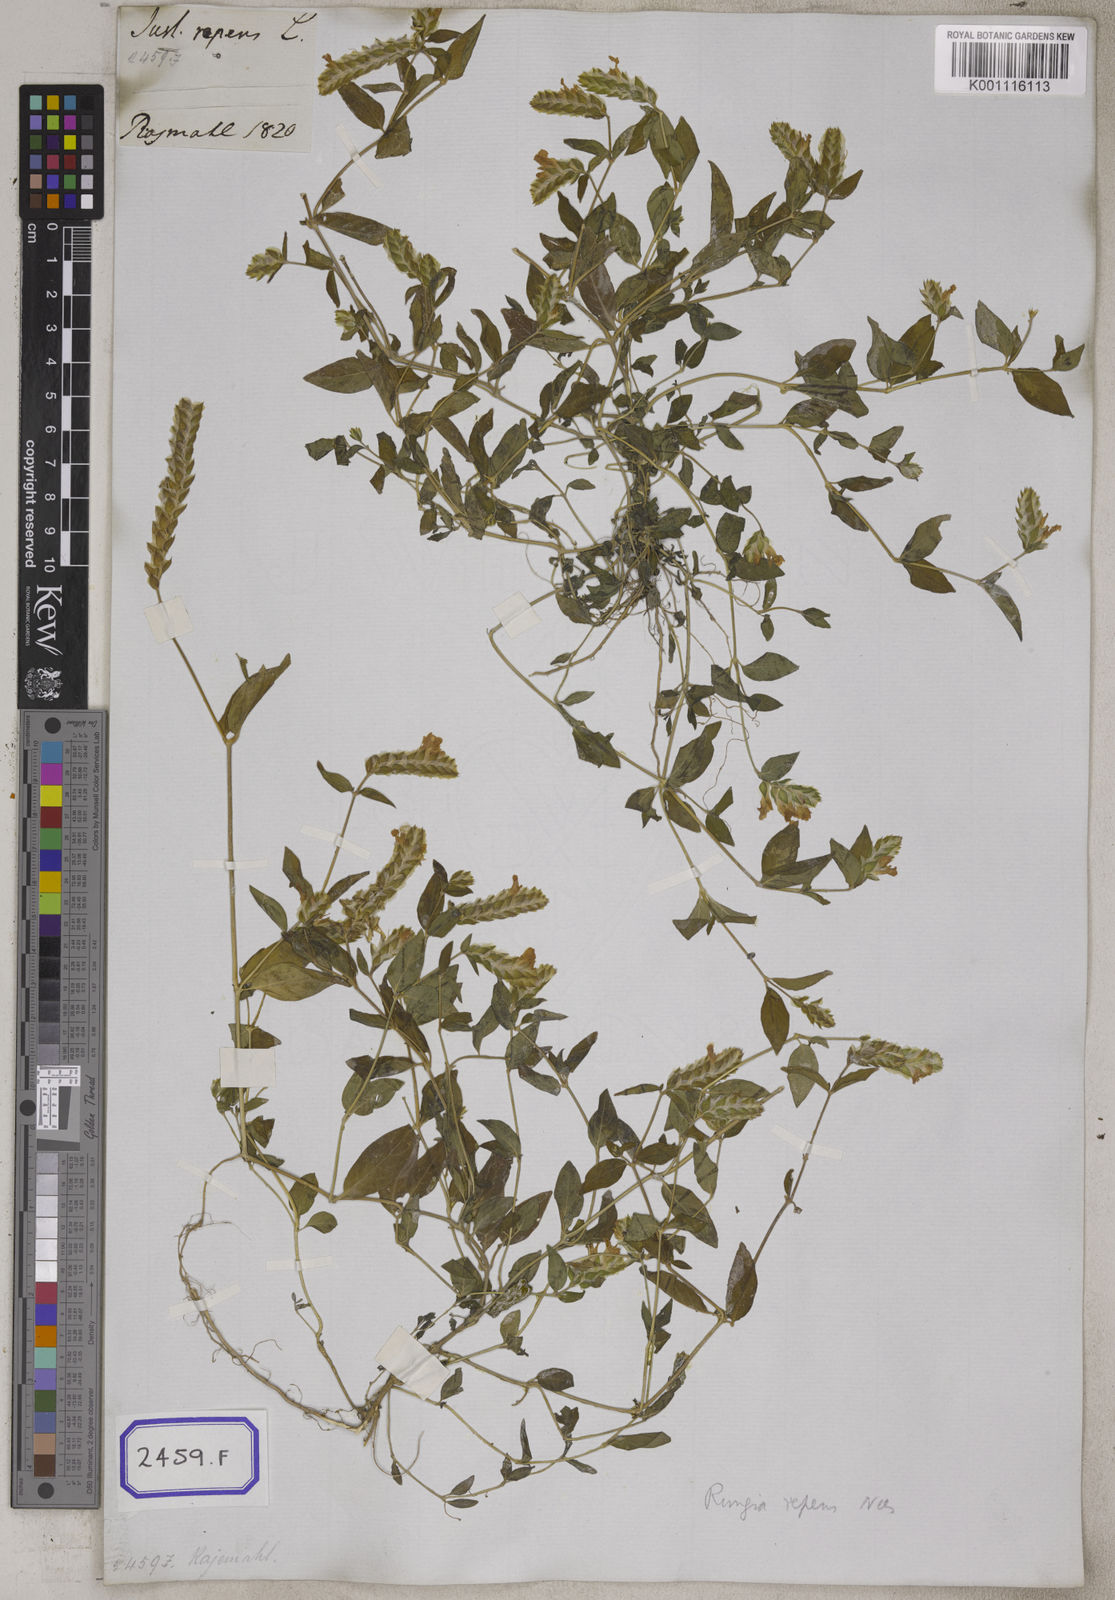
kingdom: Plantae
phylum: Tracheophyta
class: Magnoliopsida
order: Lamiales
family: Acanthaceae
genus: Justicia
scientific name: Justicia
